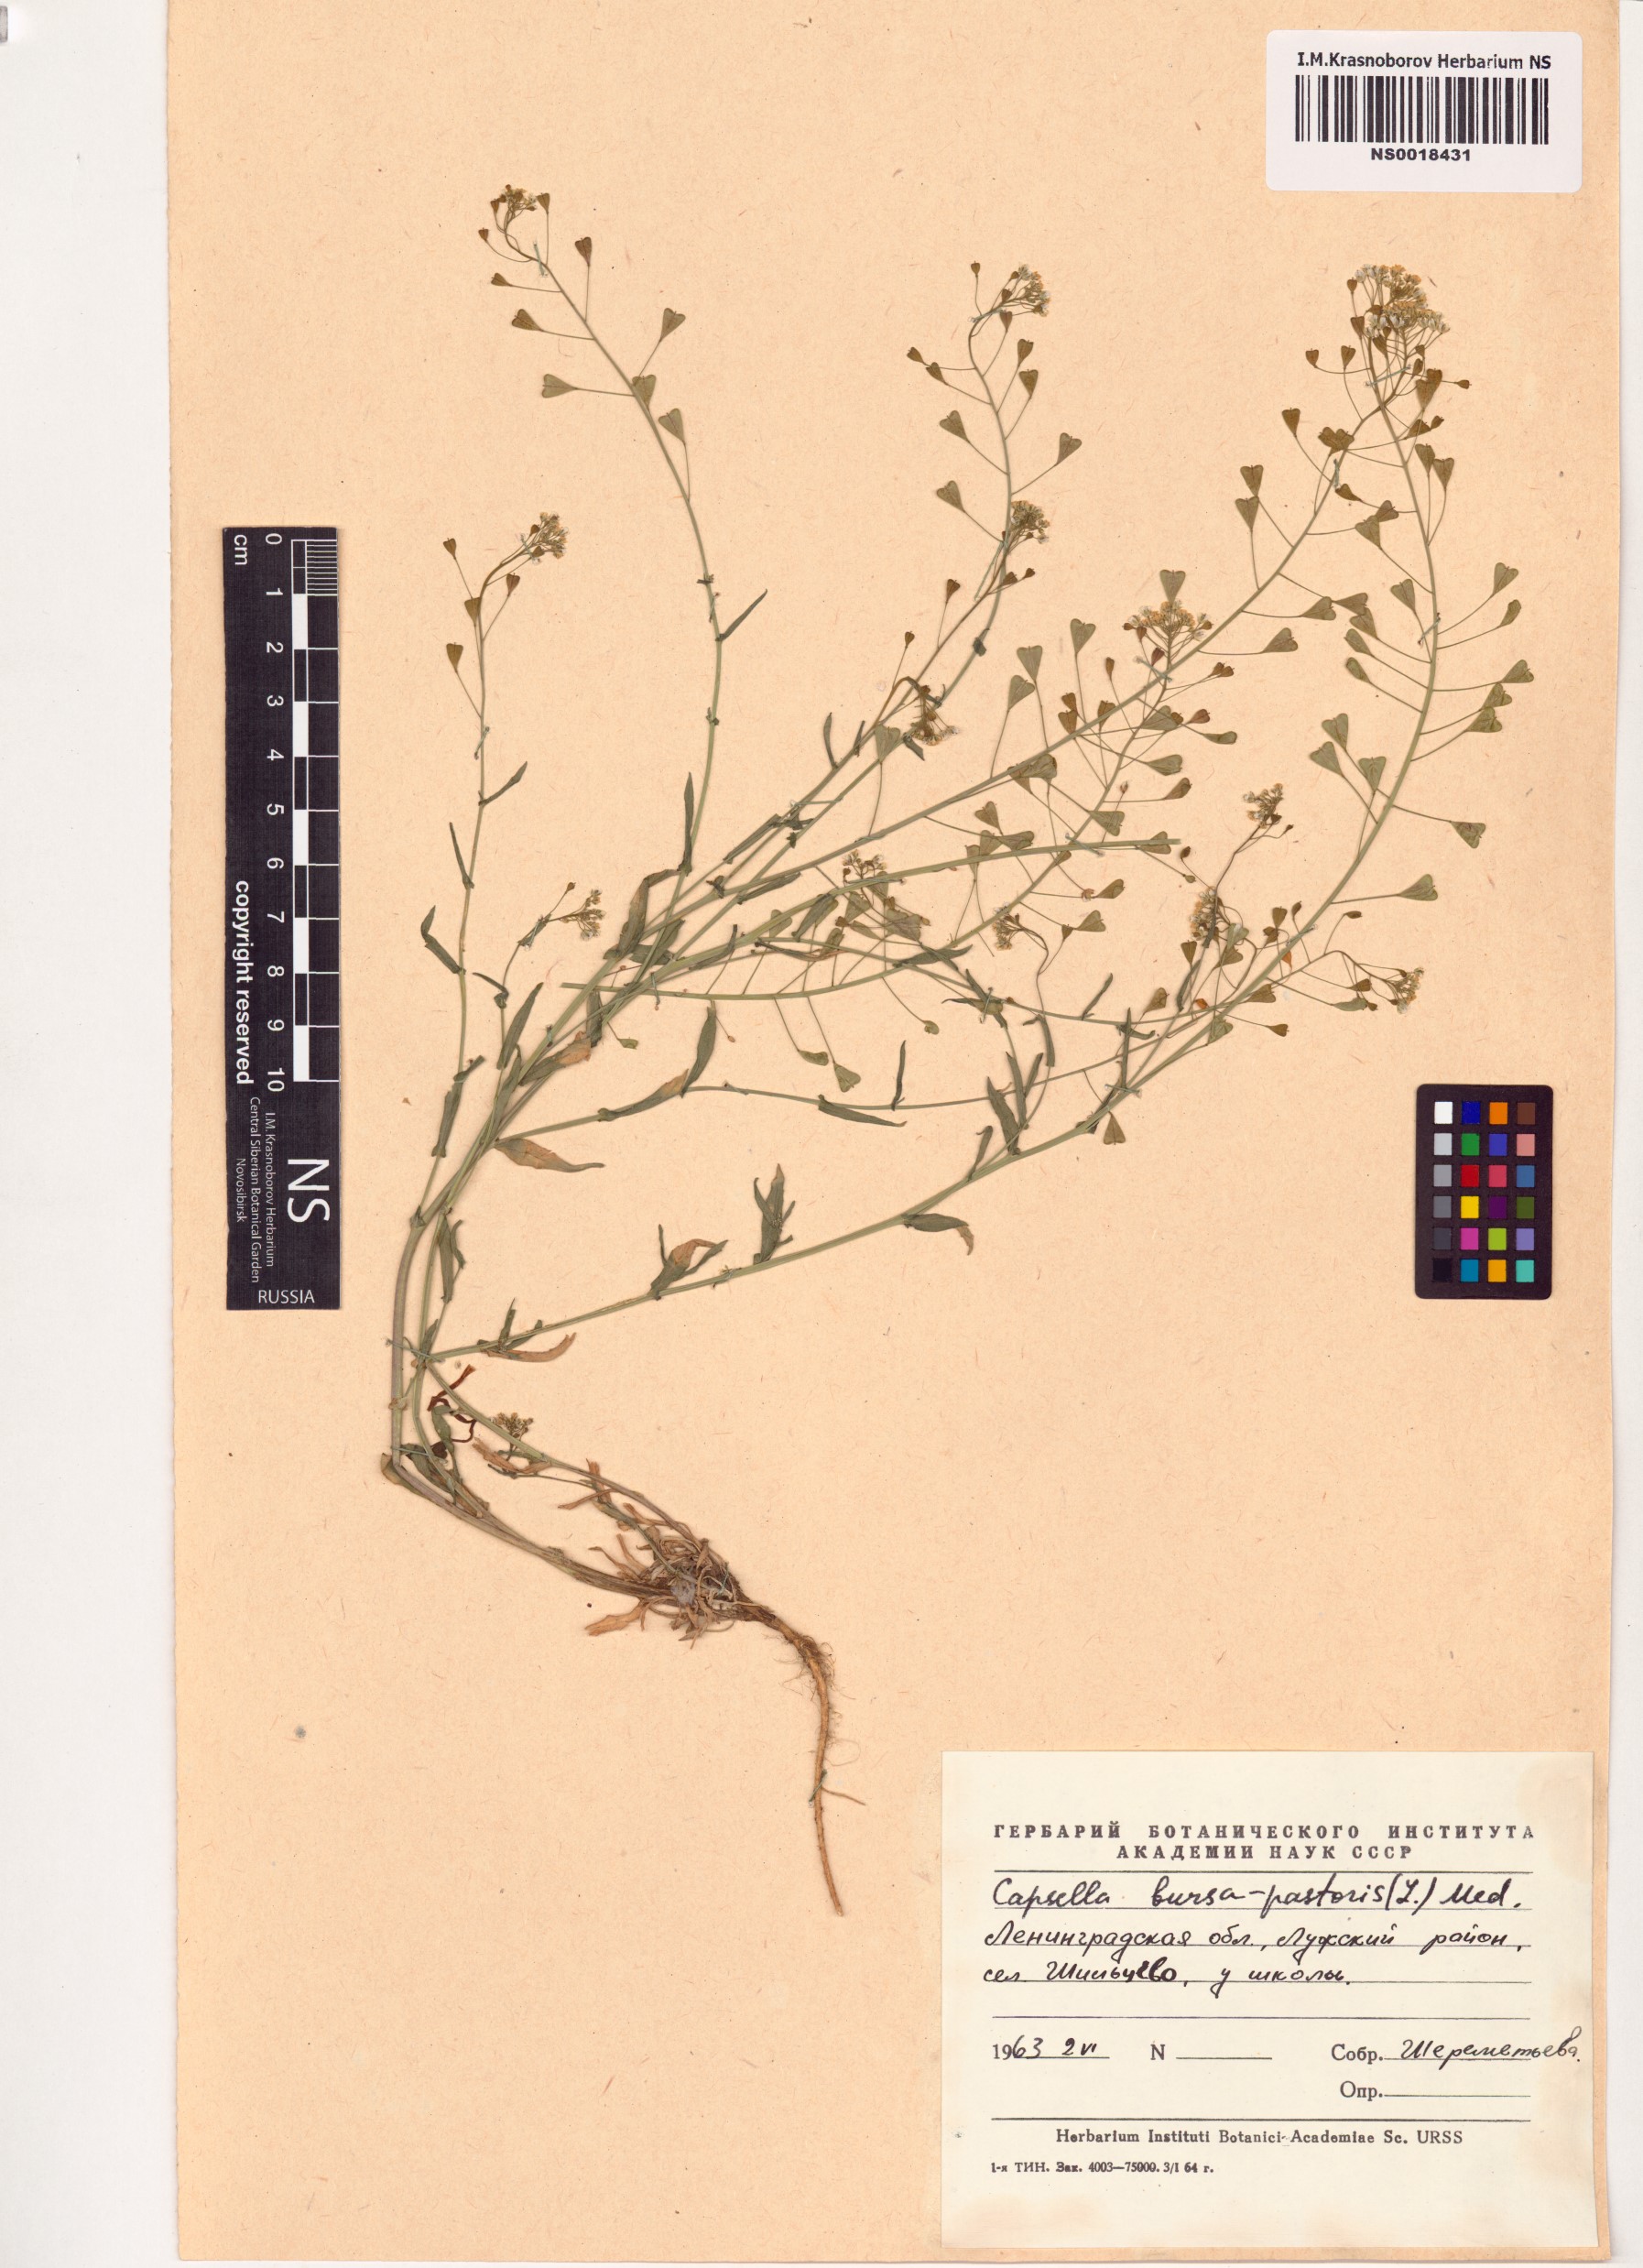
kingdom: Plantae
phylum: Tracheophyta
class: Magnoliopsida
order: Brassicales
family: Brassicaceae
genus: Capsella
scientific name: Capsella bursa-pastoris
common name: Shepherd's purse
